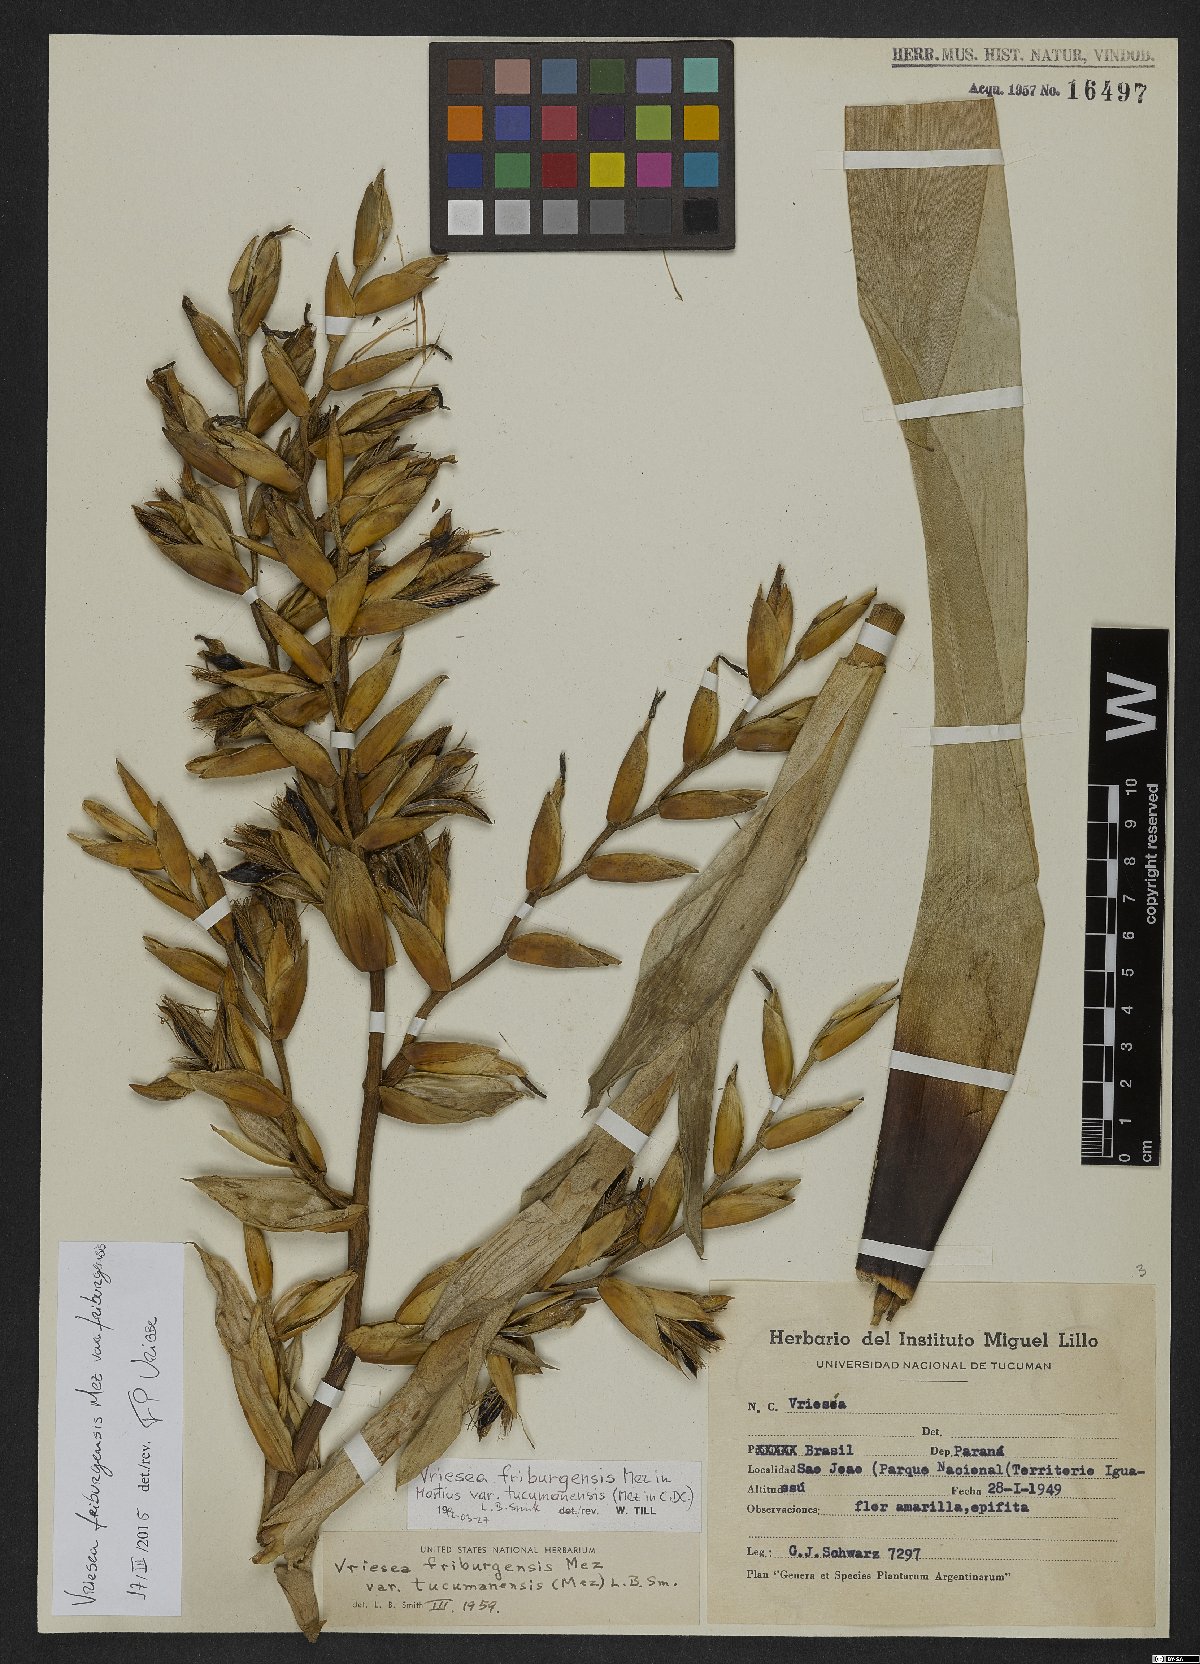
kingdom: Plantae
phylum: Tracheophyta
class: Liliopsida
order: Poales
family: Bromeliaceae
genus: Vriesea
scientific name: Vriesea friburgensis
